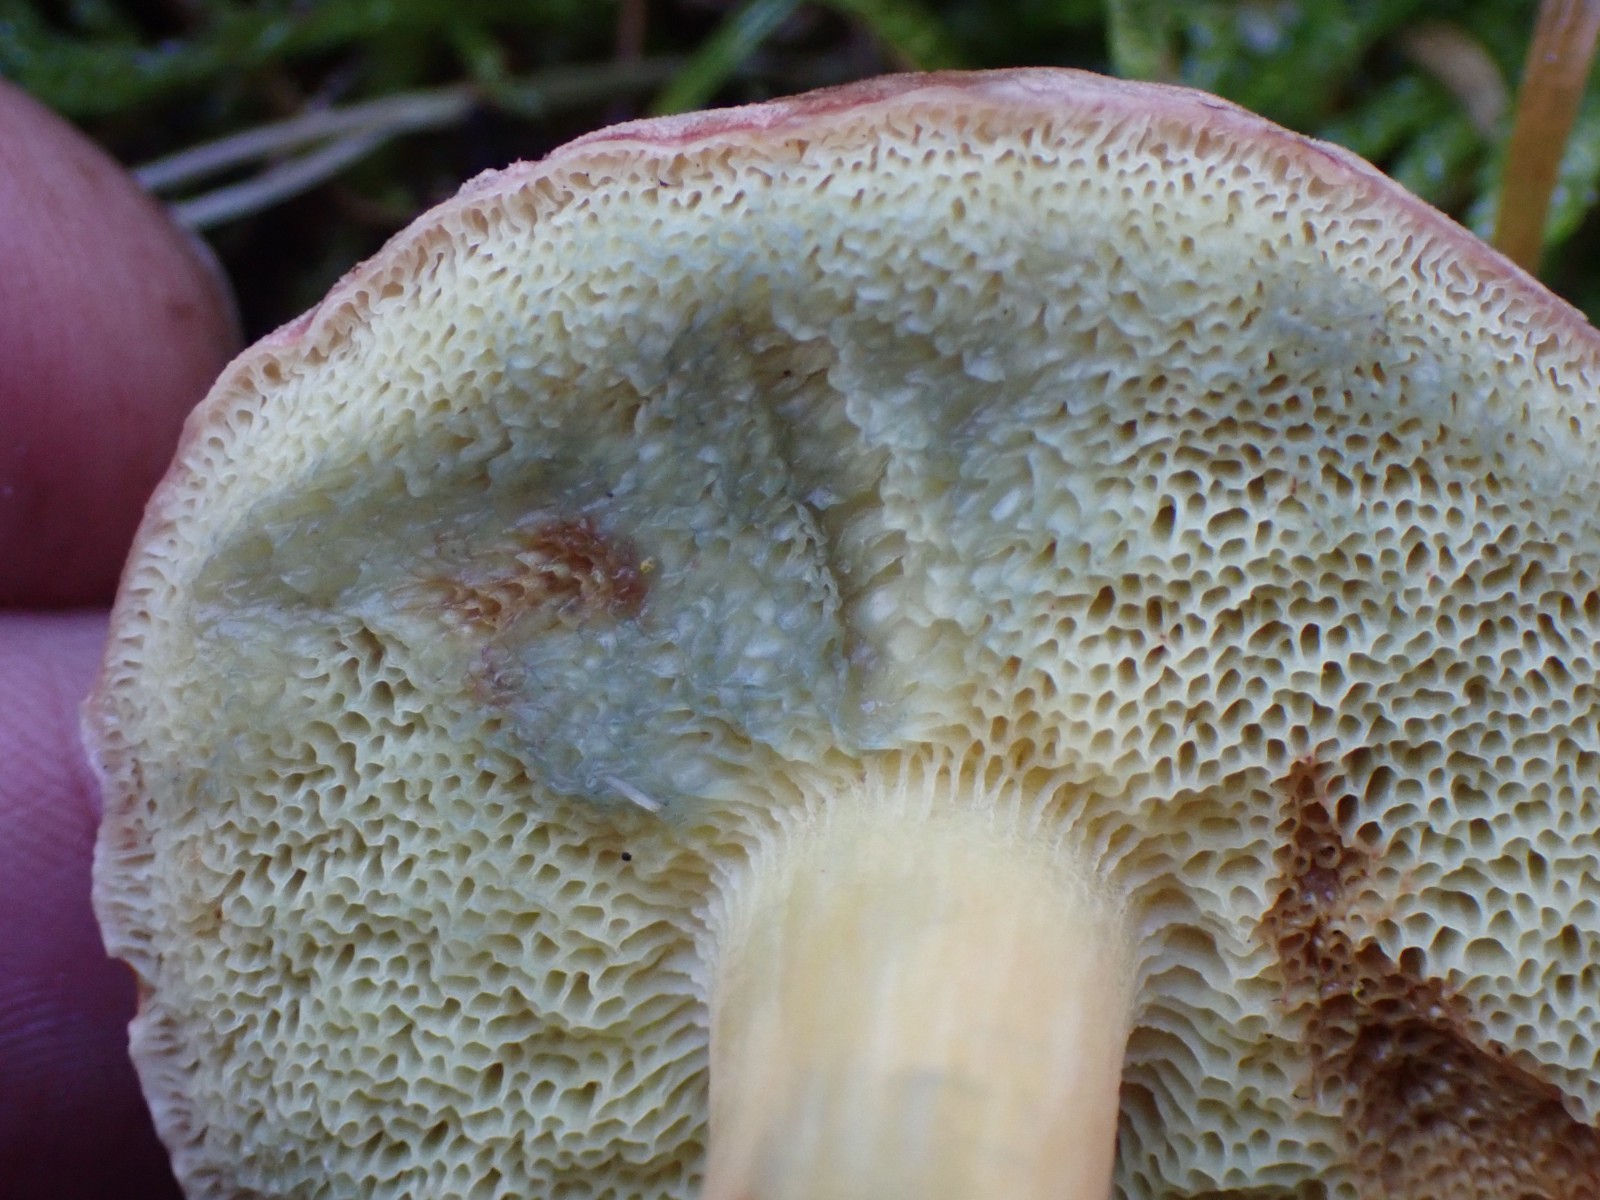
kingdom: Fungi
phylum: Basidiomycota
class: Agaricomycetes
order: Boletales
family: Boletaceae
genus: Xerocomellus
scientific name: Xerocomellus
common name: dværgrørhat
